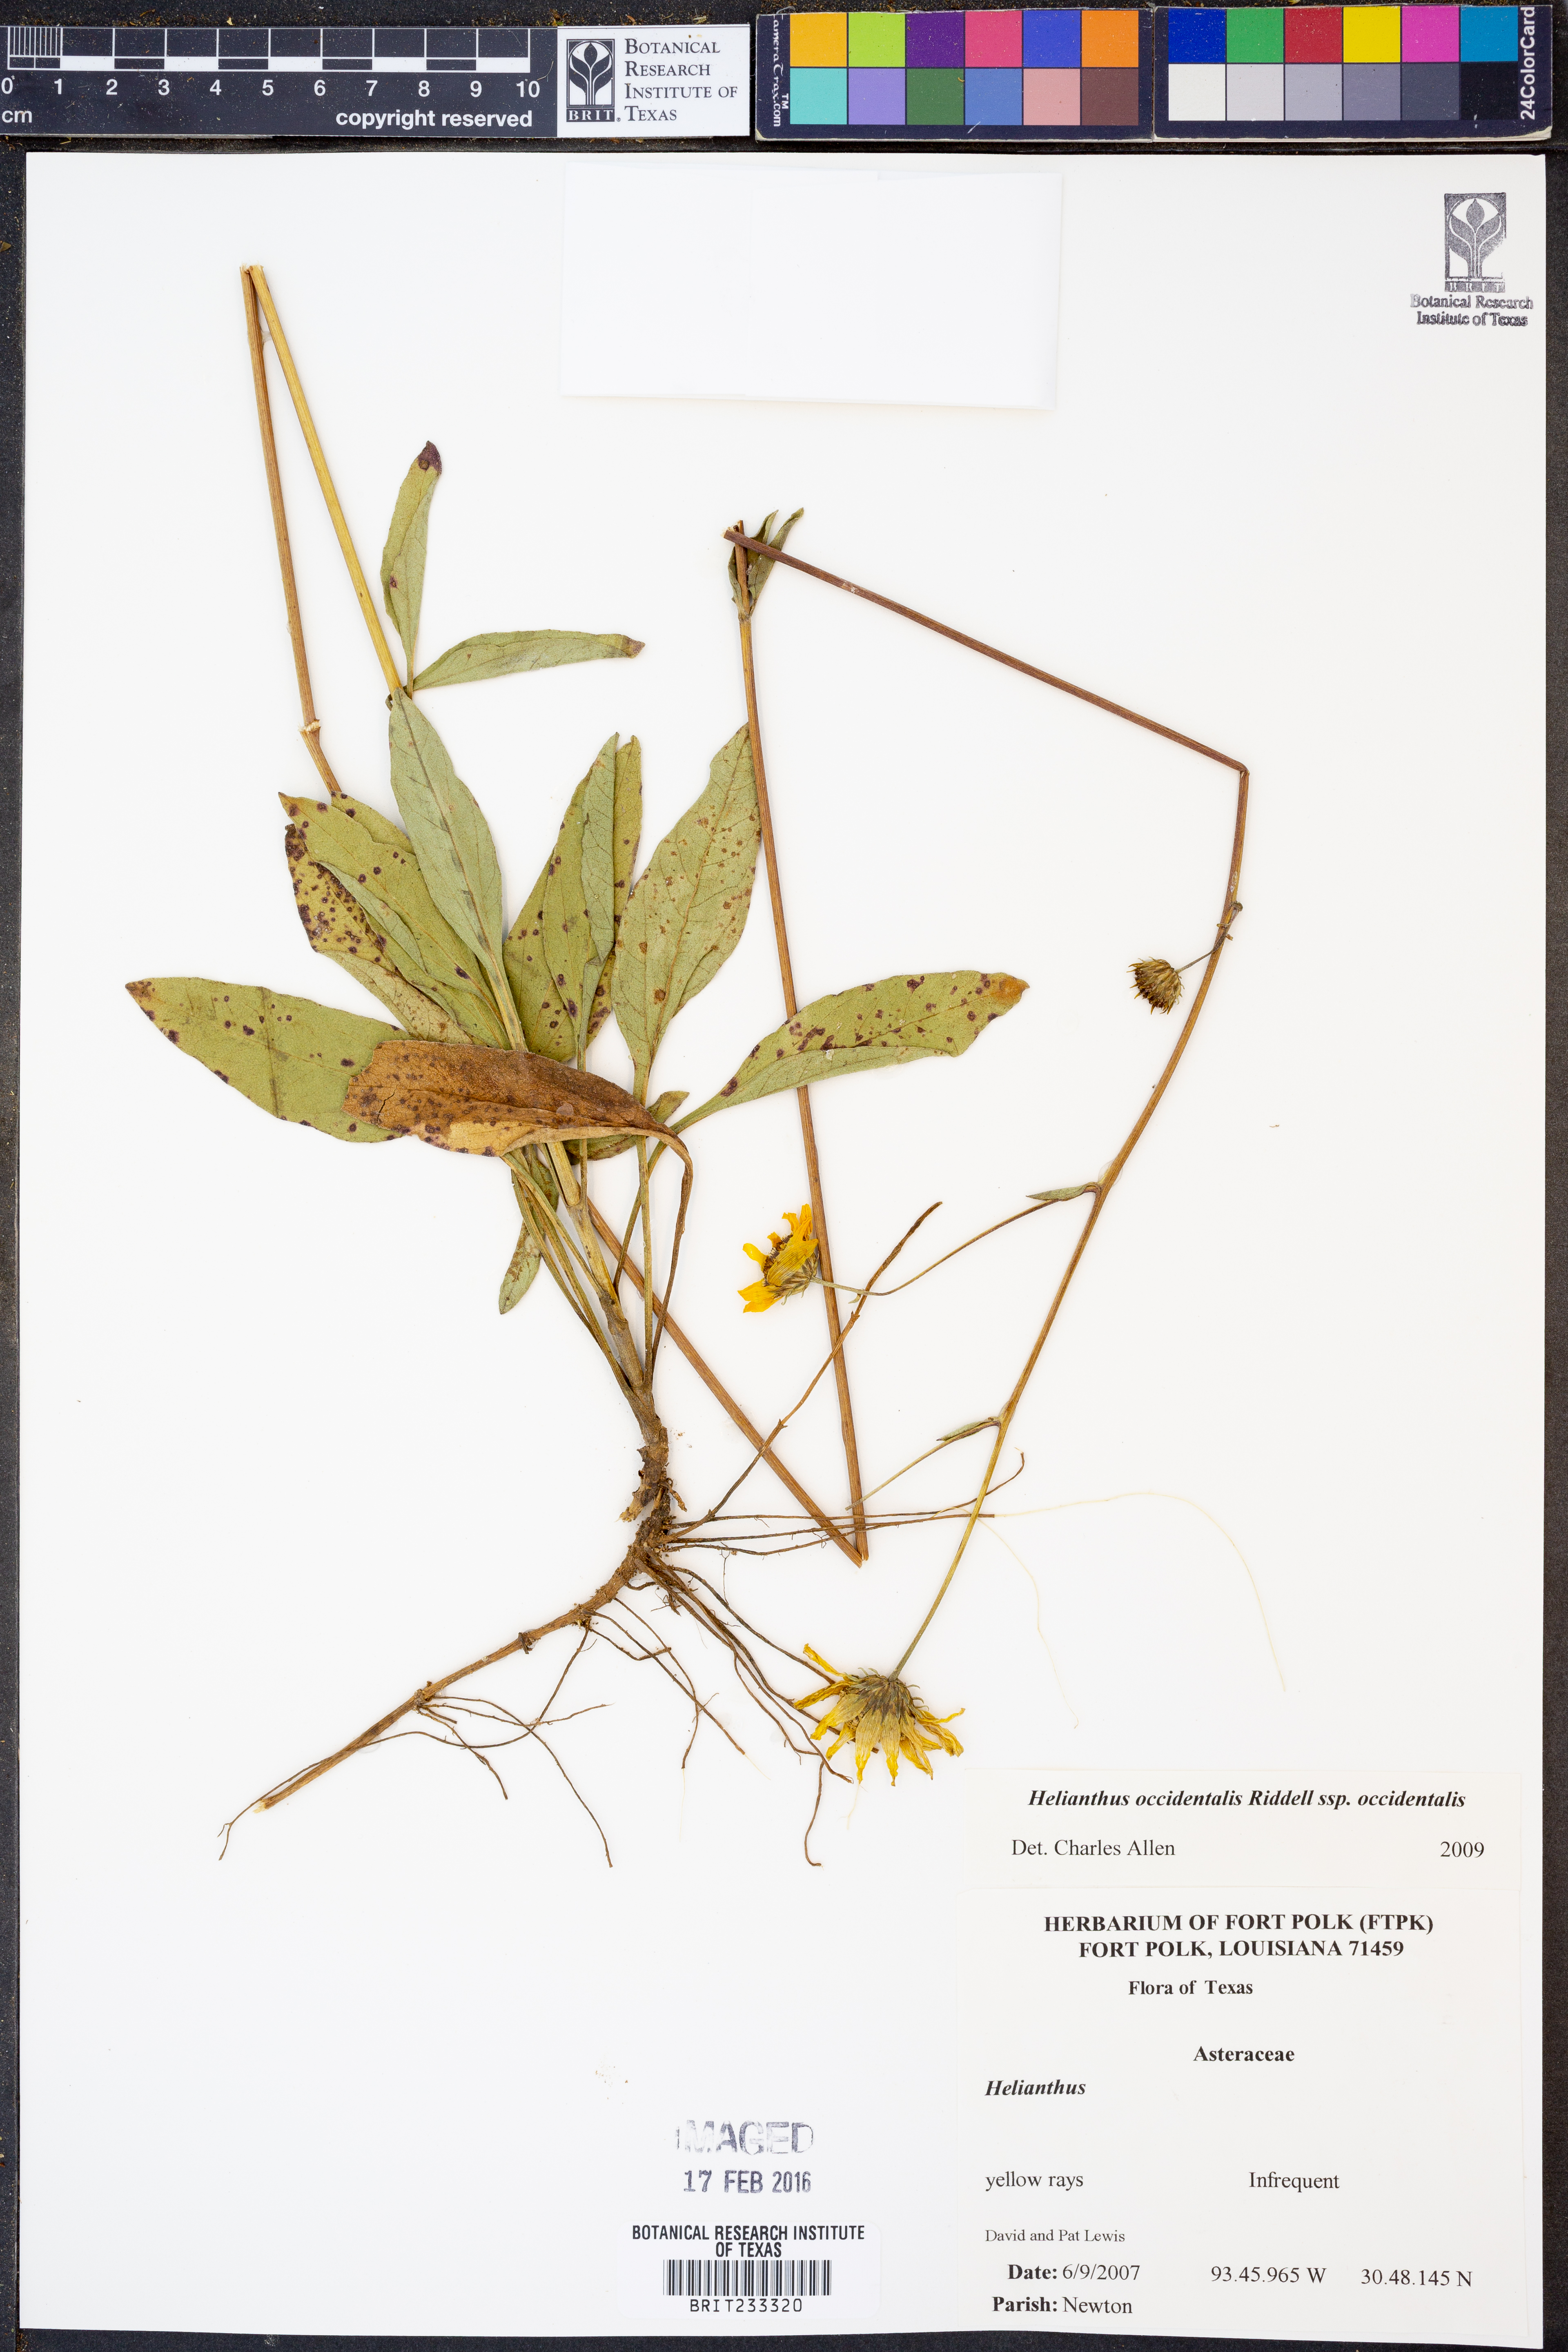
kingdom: Plantae
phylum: Tracheophyta
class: Magnoliopsida
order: Asterales
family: Asteraceae
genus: Helianthus
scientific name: Helianthus occidentalis
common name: Western sunflower
